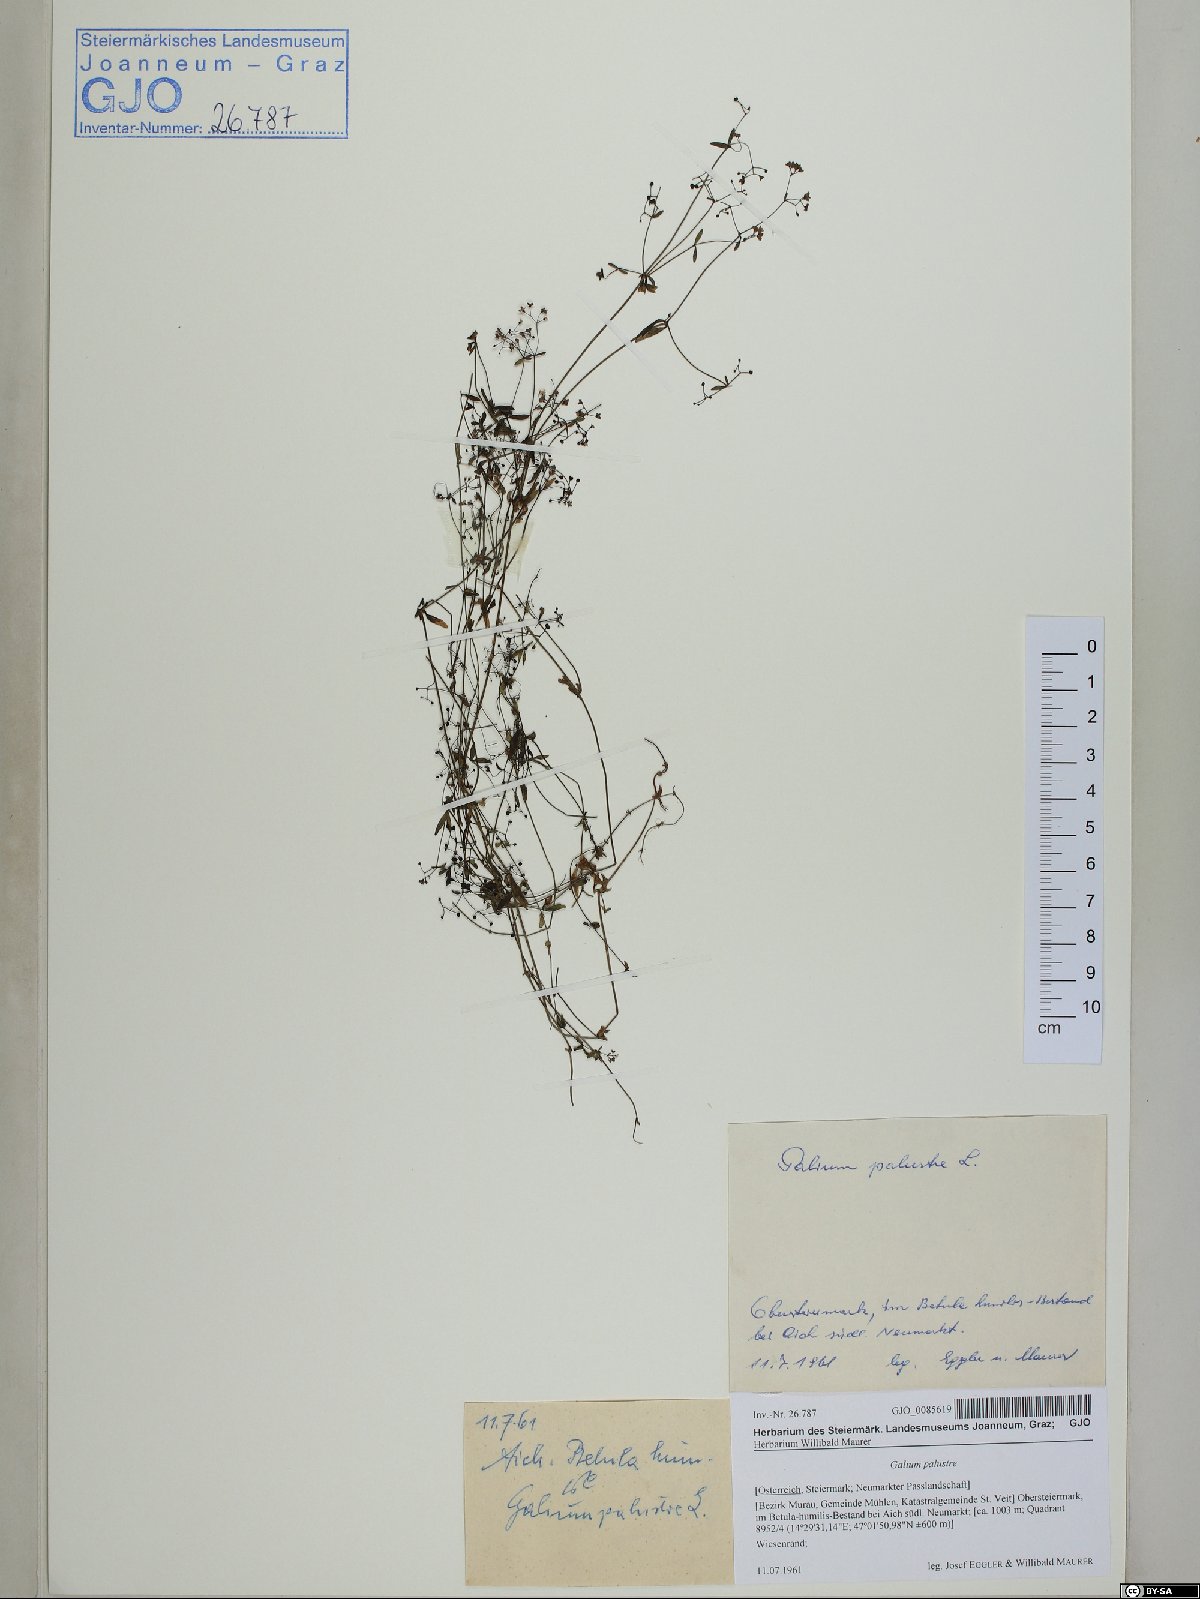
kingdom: Plantae
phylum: Tracheophyta
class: Magnoliopsida
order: Gentianales
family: Rubiaceae
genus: Galium
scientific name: Galium palustre
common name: Common marsh-bedstraw
